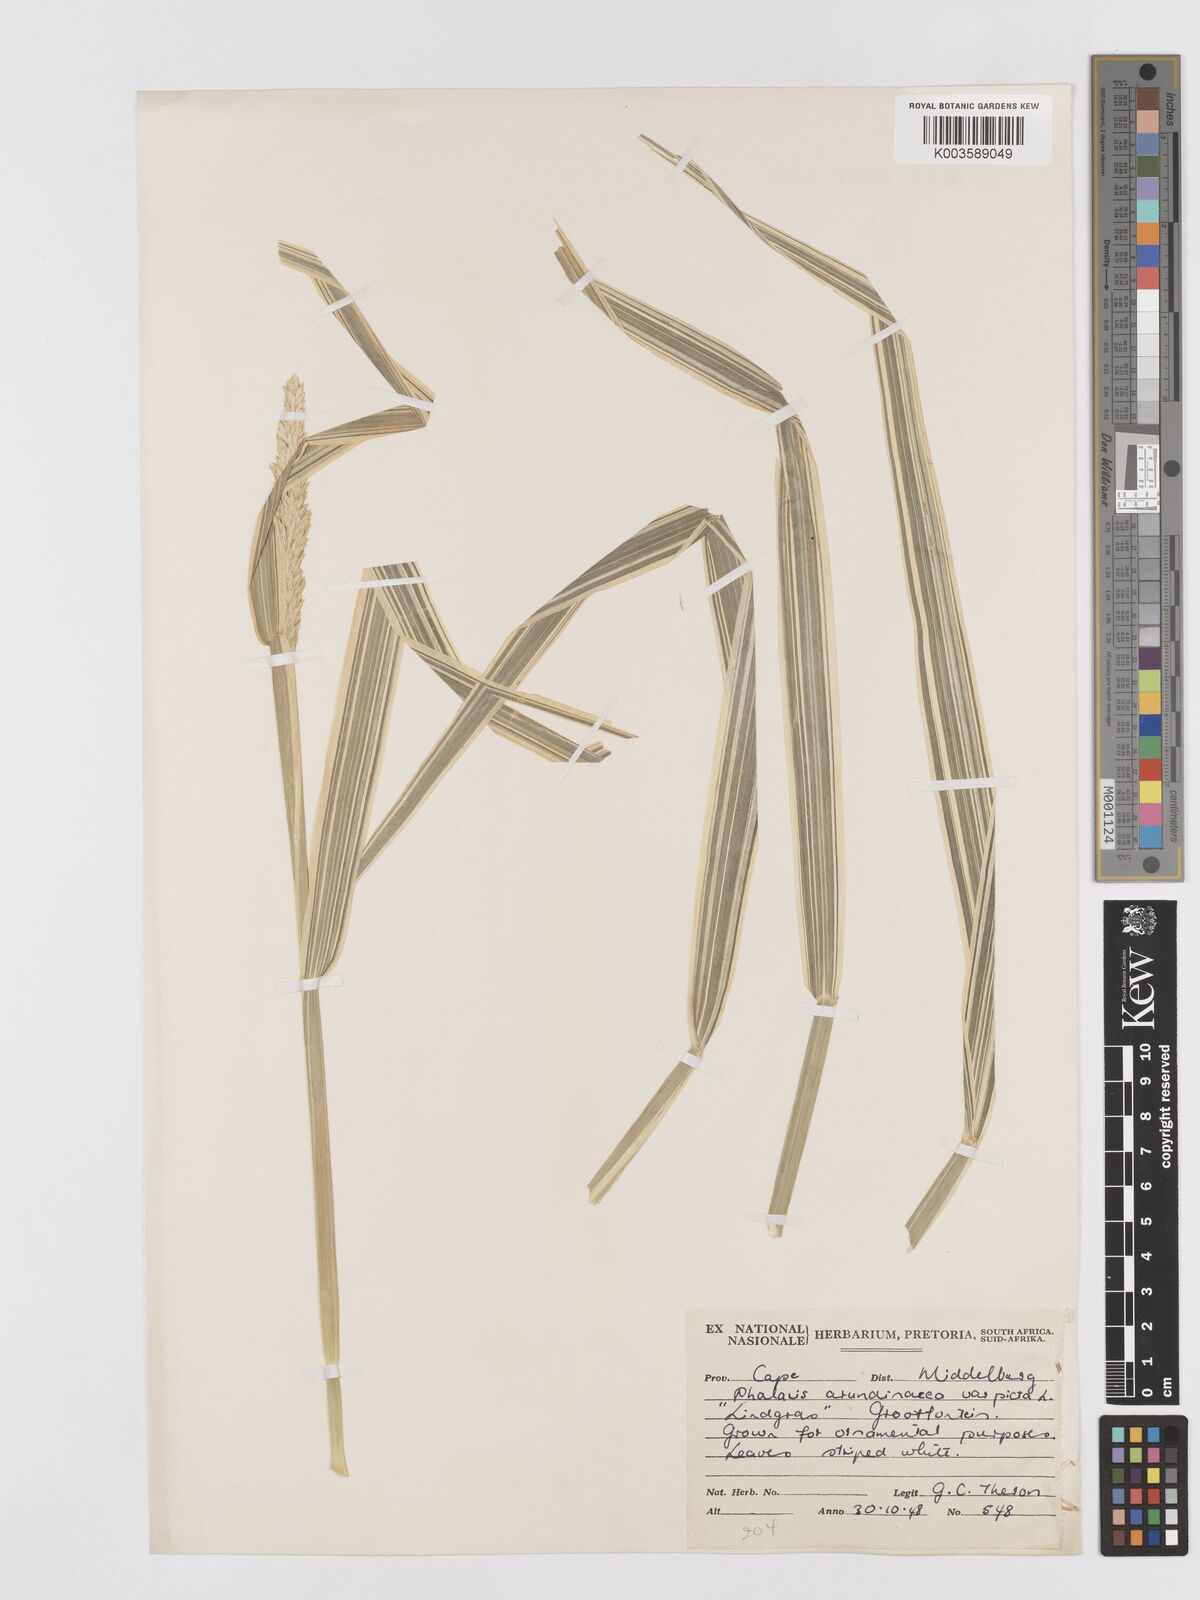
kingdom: Plantae
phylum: Tracheophyta
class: Liliopsida
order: Poales
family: Poaceae
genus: Phalaris
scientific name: Phalaris arundinacea
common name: Reed canary-grass
